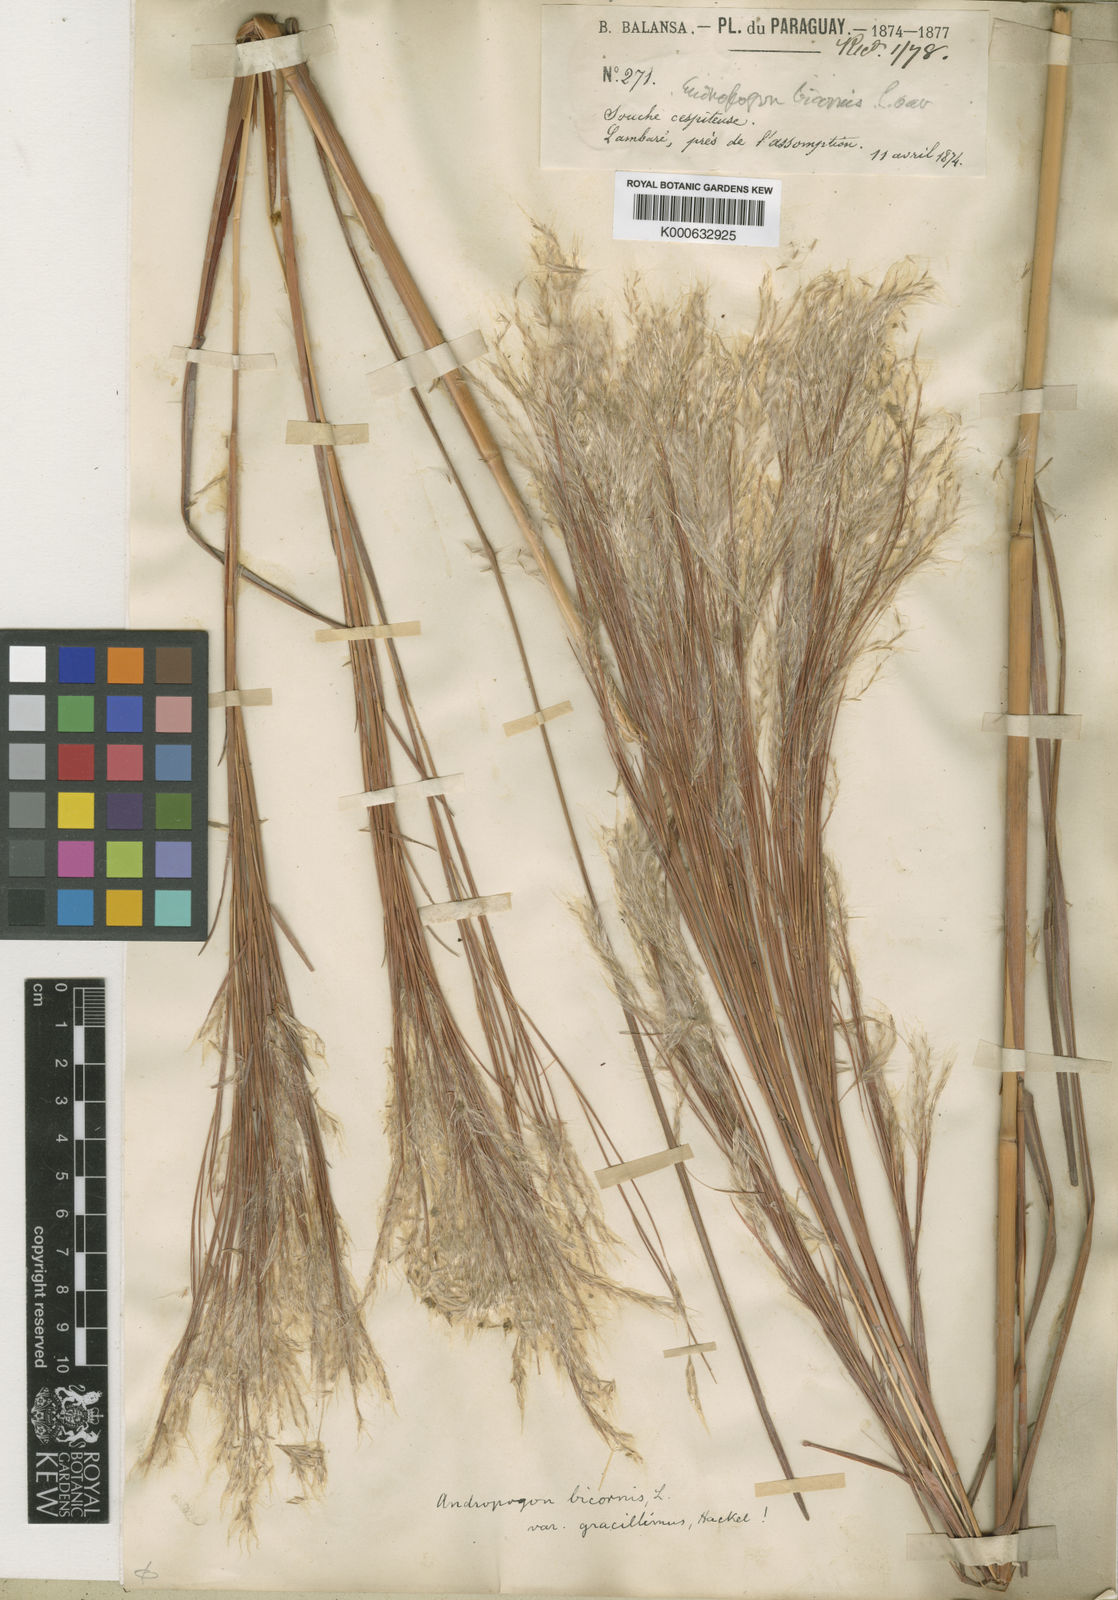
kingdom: Plantae
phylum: Tracheophyta
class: Liliopsida
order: Poales
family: Poaceae
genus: Andropogon
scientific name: Andropogon bicornis
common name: West indian foxtail grass
